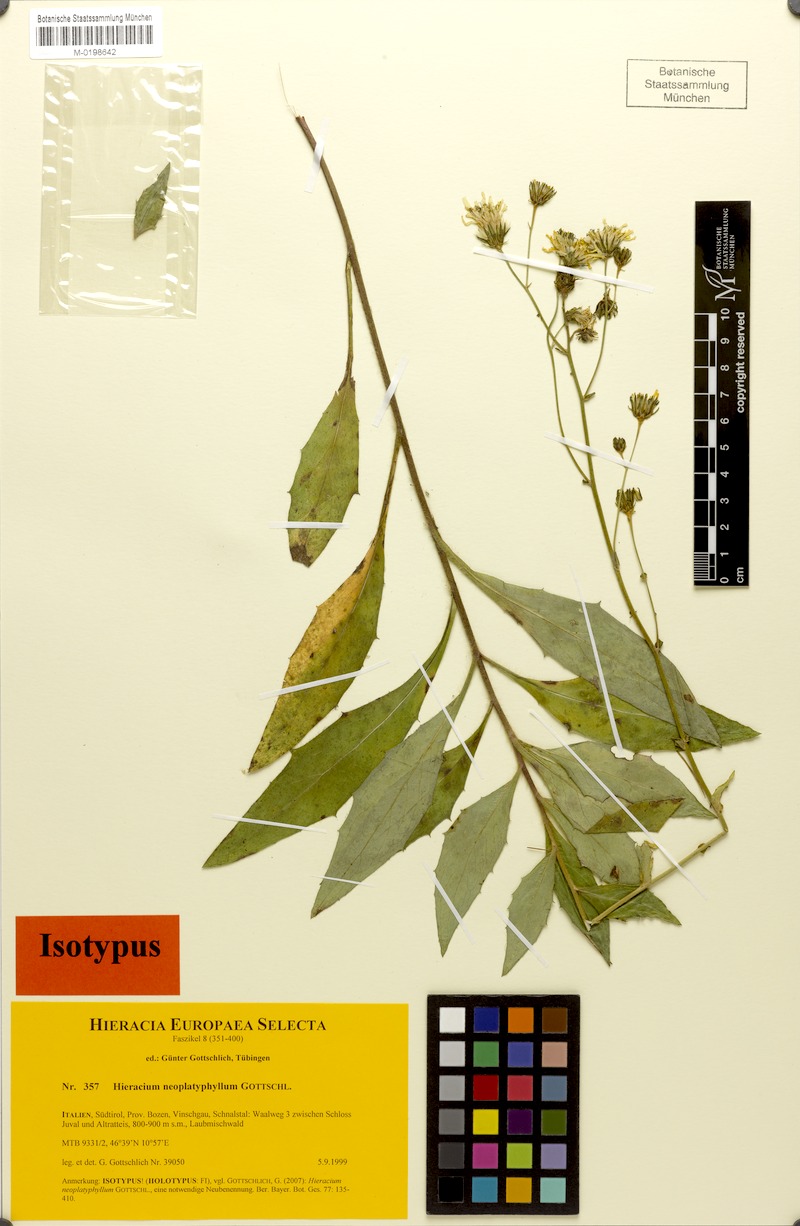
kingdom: Plantae
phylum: Tracheophyta
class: Magnoliopsida
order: Asterales
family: Asteraceae
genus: Hieracium
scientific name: Hieracium neoplatyphyllum
